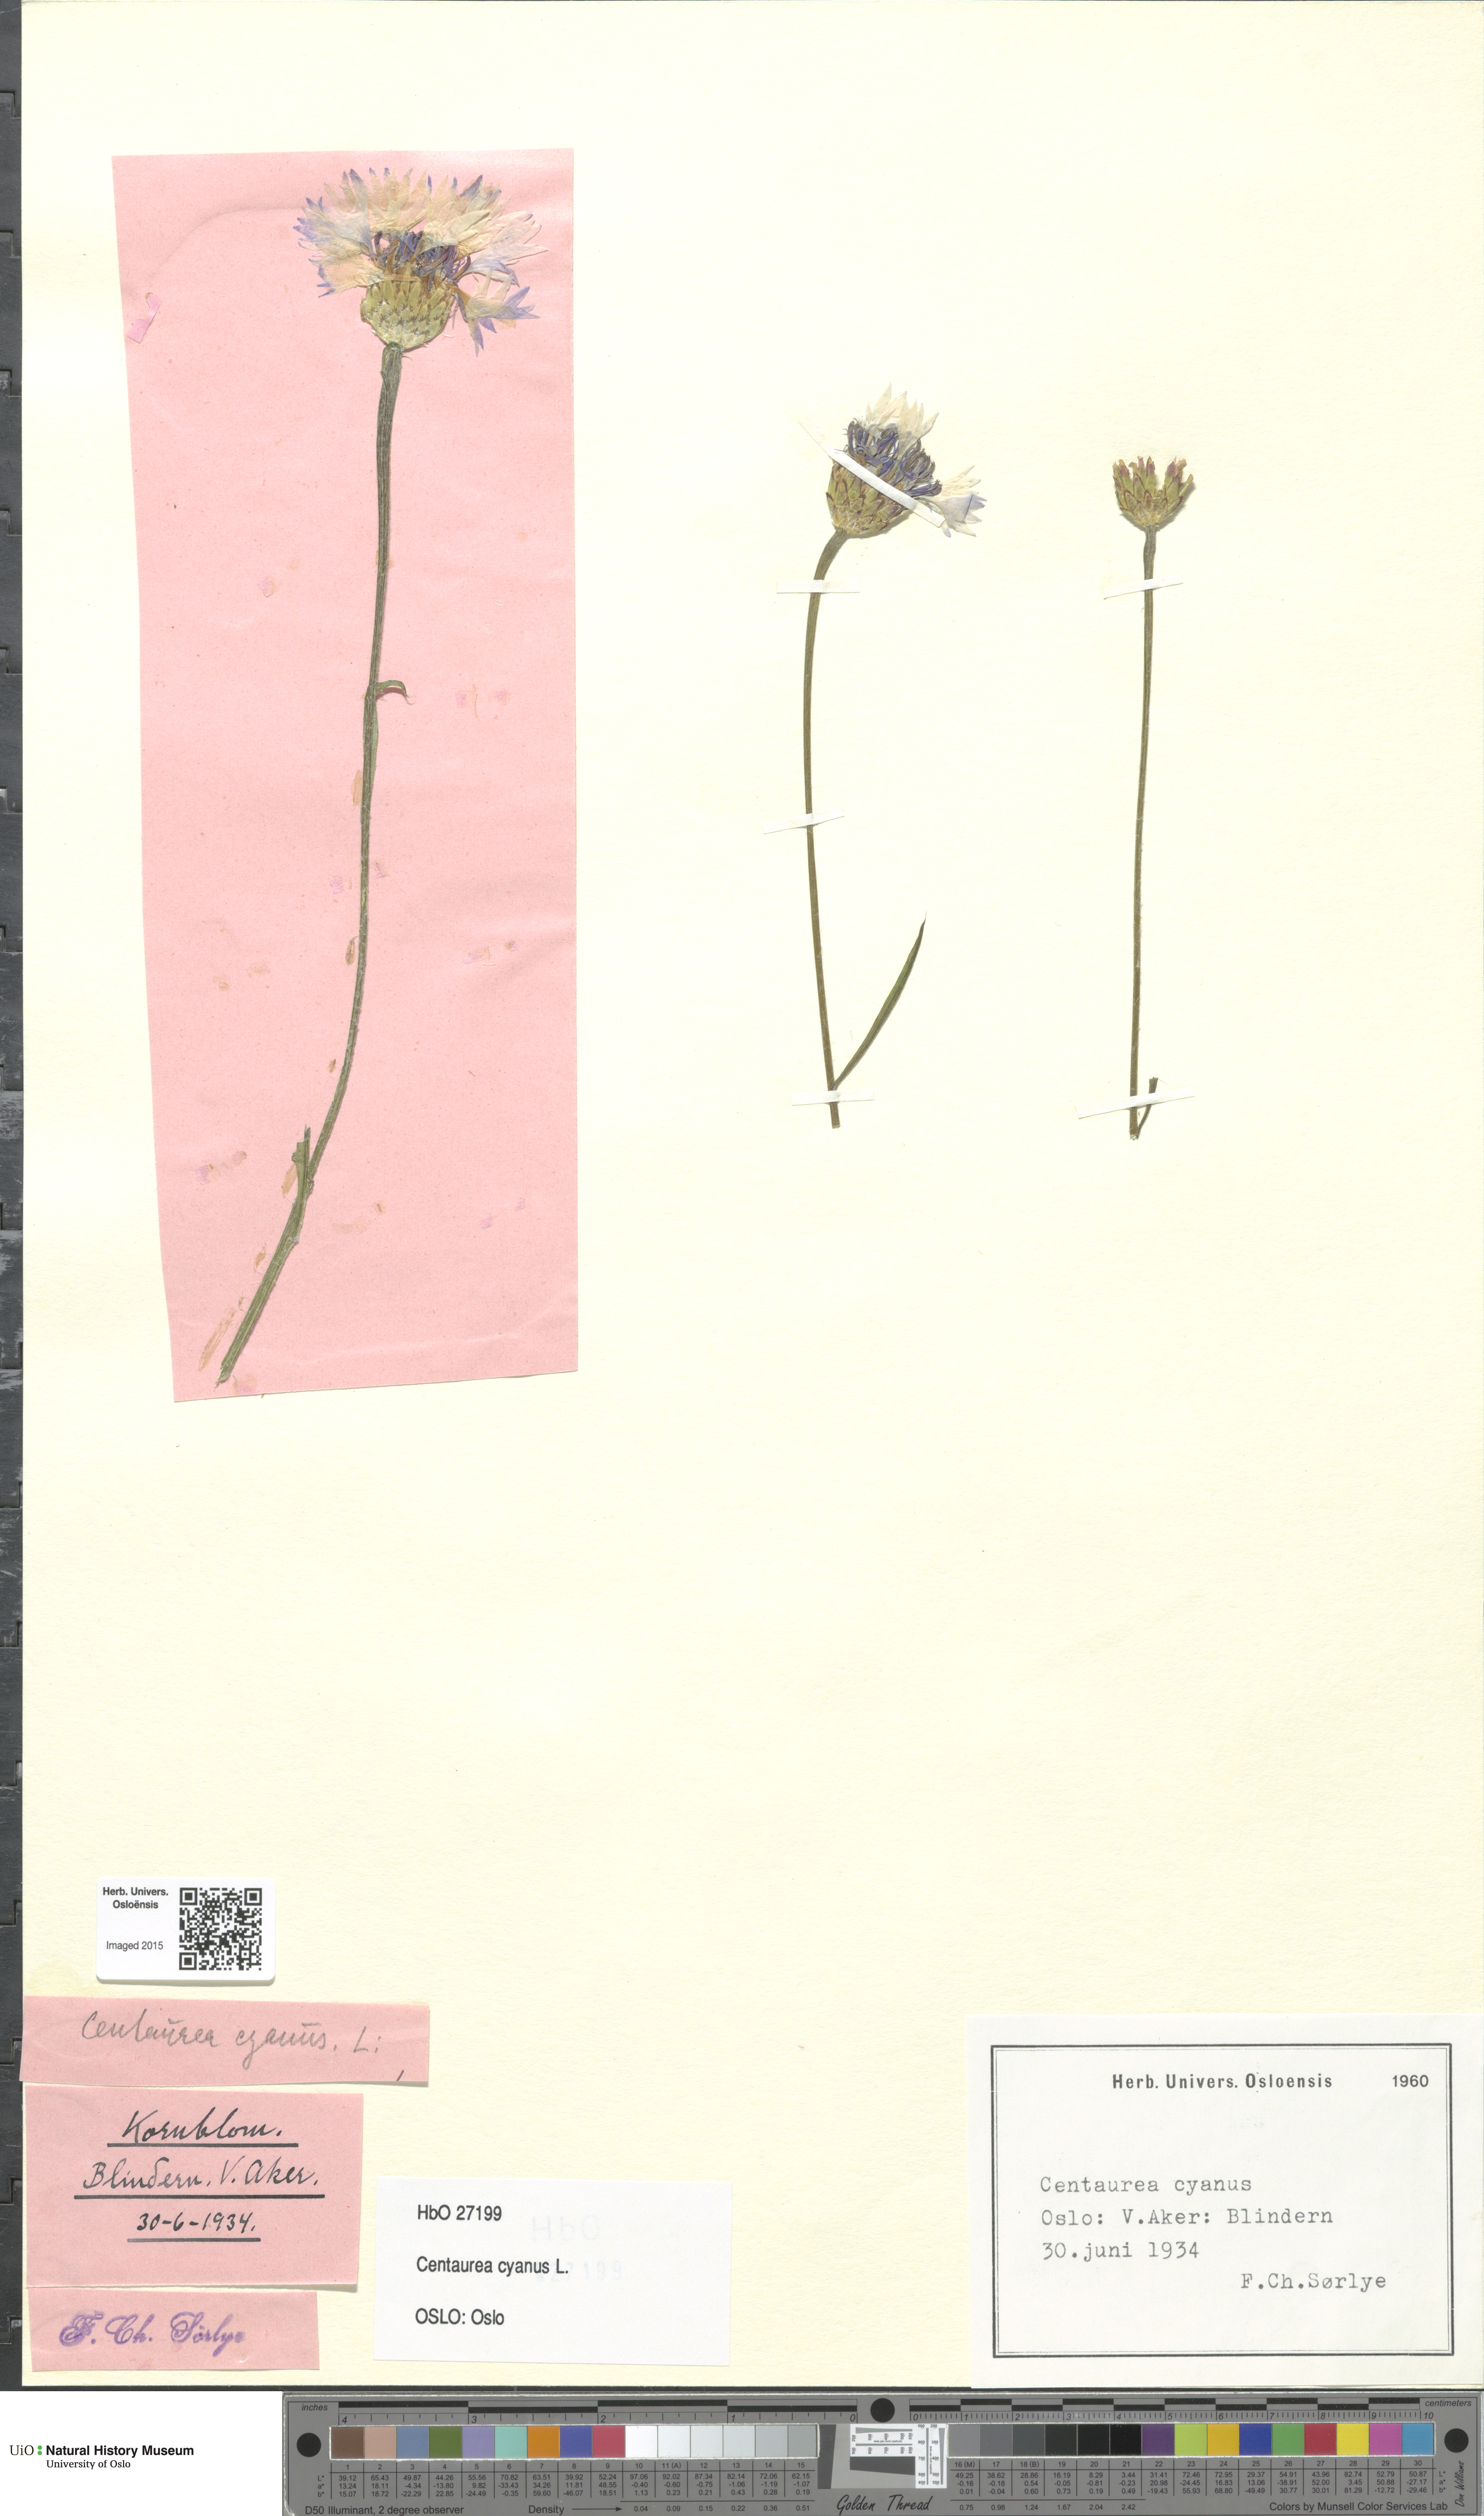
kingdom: Plantae
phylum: Tracheophyta
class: Magnoliopsida
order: Asterales
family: Asteraceae
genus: Centaurea
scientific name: Centaurea cyanus
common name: Cornflower
